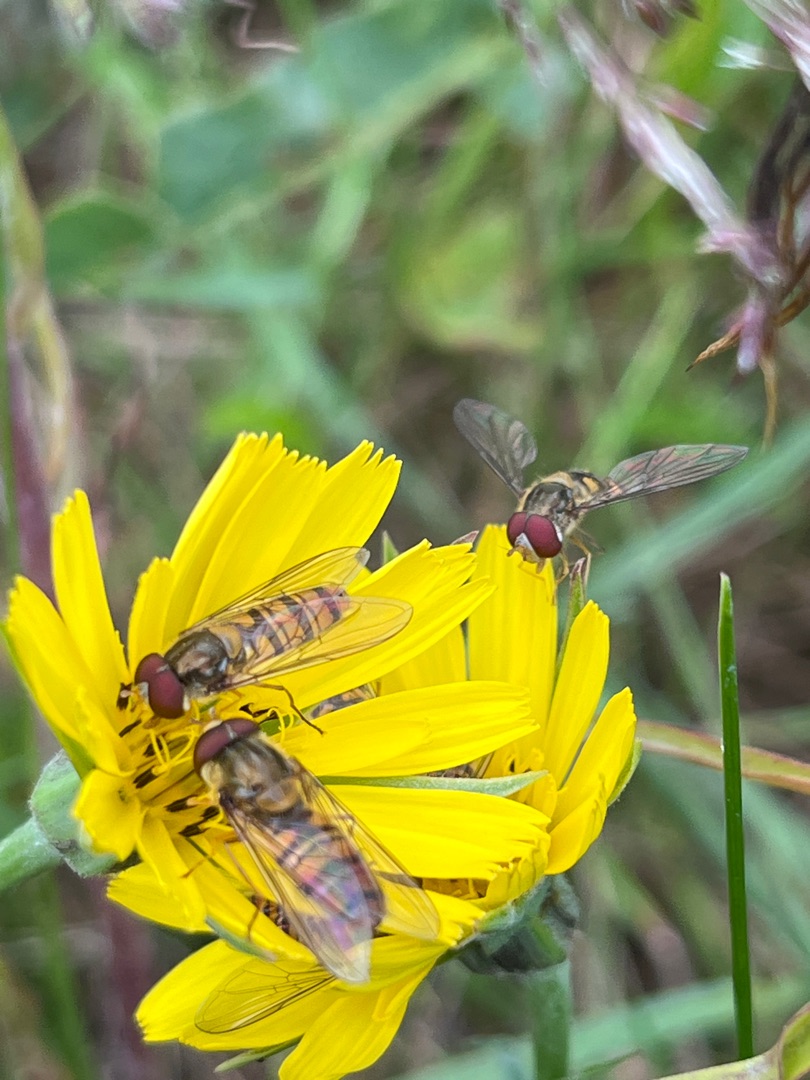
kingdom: Animalia
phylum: Arthropoda
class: Insecta
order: Diptera
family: Syrphidae
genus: Episyrphus
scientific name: Episyrphus balteatus
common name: Dobbeltbåndet svirreflue
